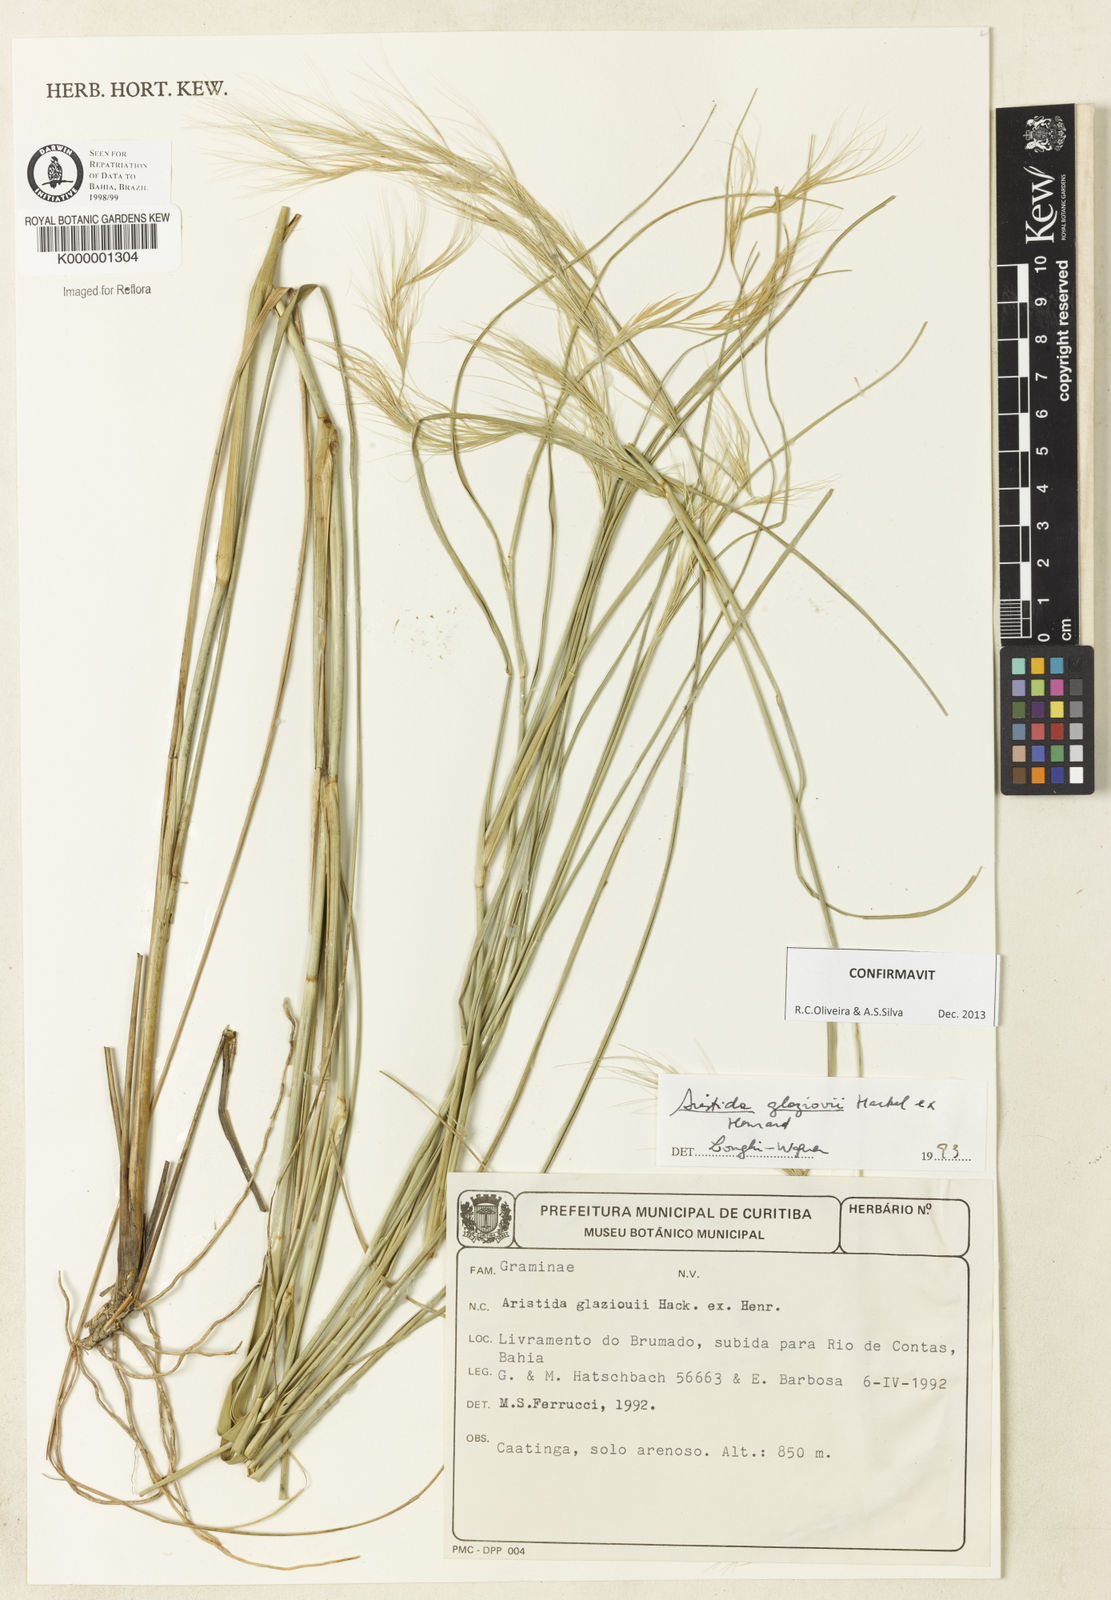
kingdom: Plantae
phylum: Tracheophyta
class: Liliopsida
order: Poales
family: Poaceae
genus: Aristida
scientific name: Aristida
